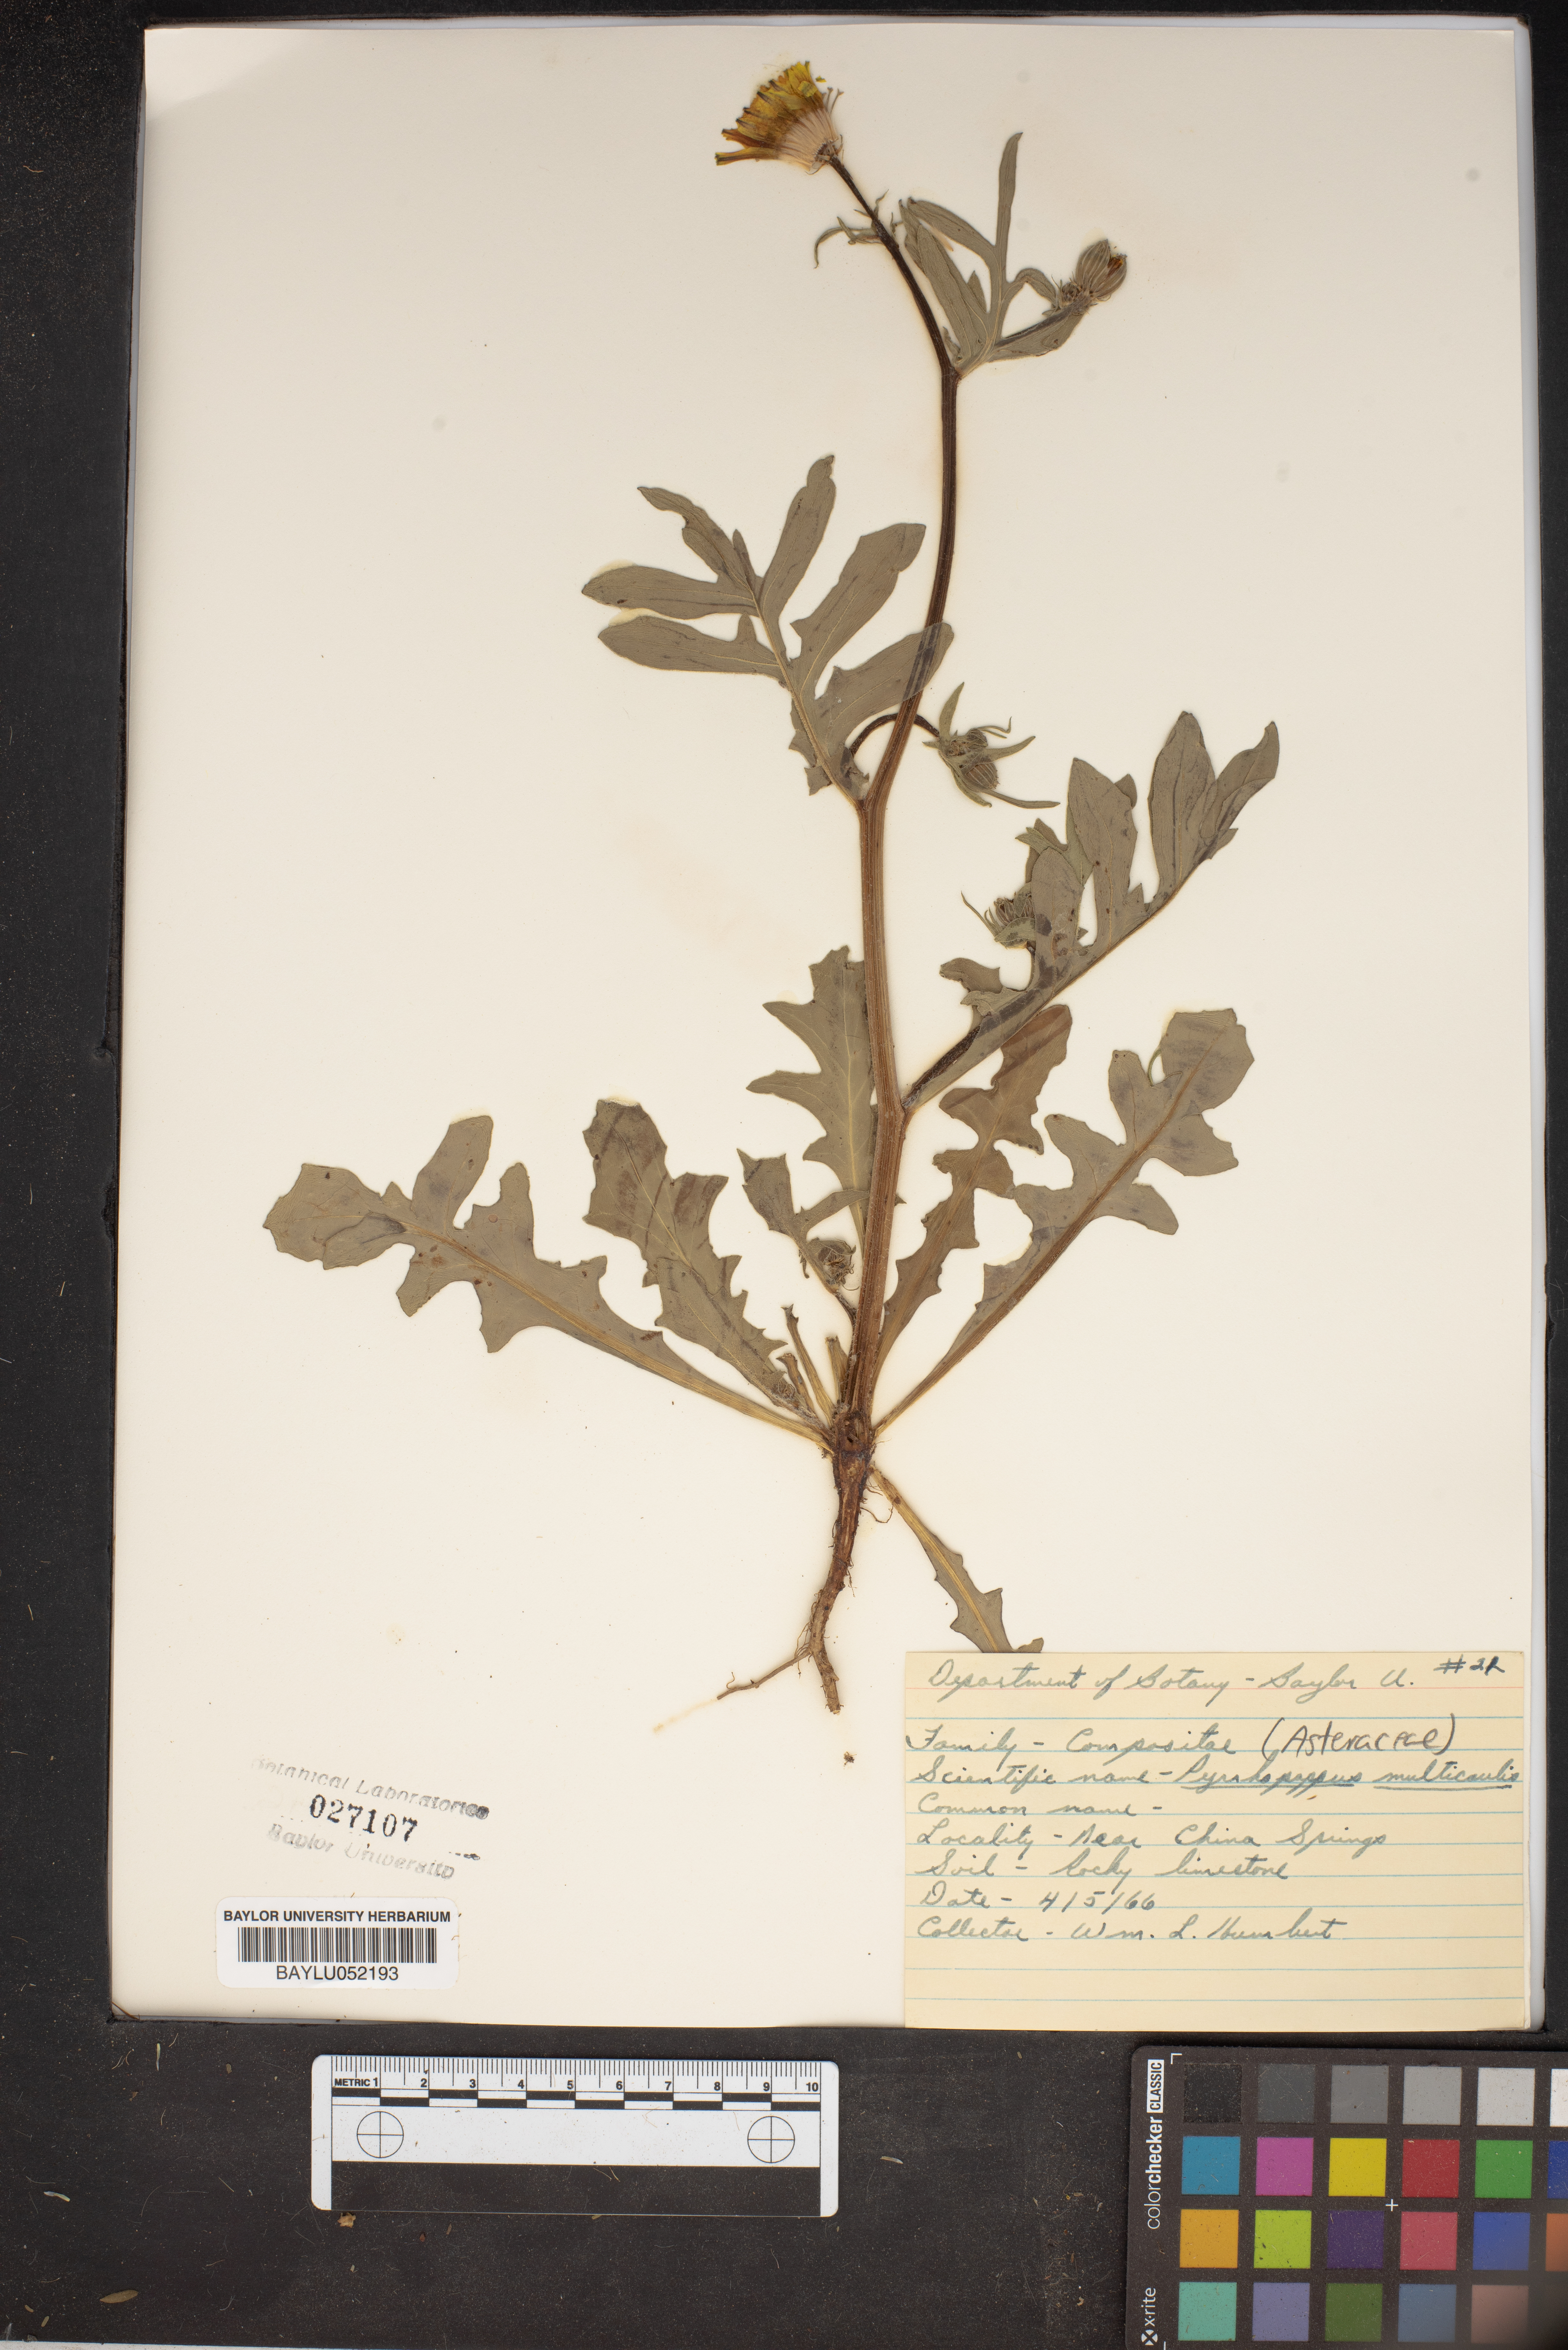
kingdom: Plantae
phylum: Tracheophyta
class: Magnoliopsida
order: Asterales
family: Asteraceae
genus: Pyrrhopappus
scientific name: Pyrrhopappus pauciflorus
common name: Texas false dandelion
